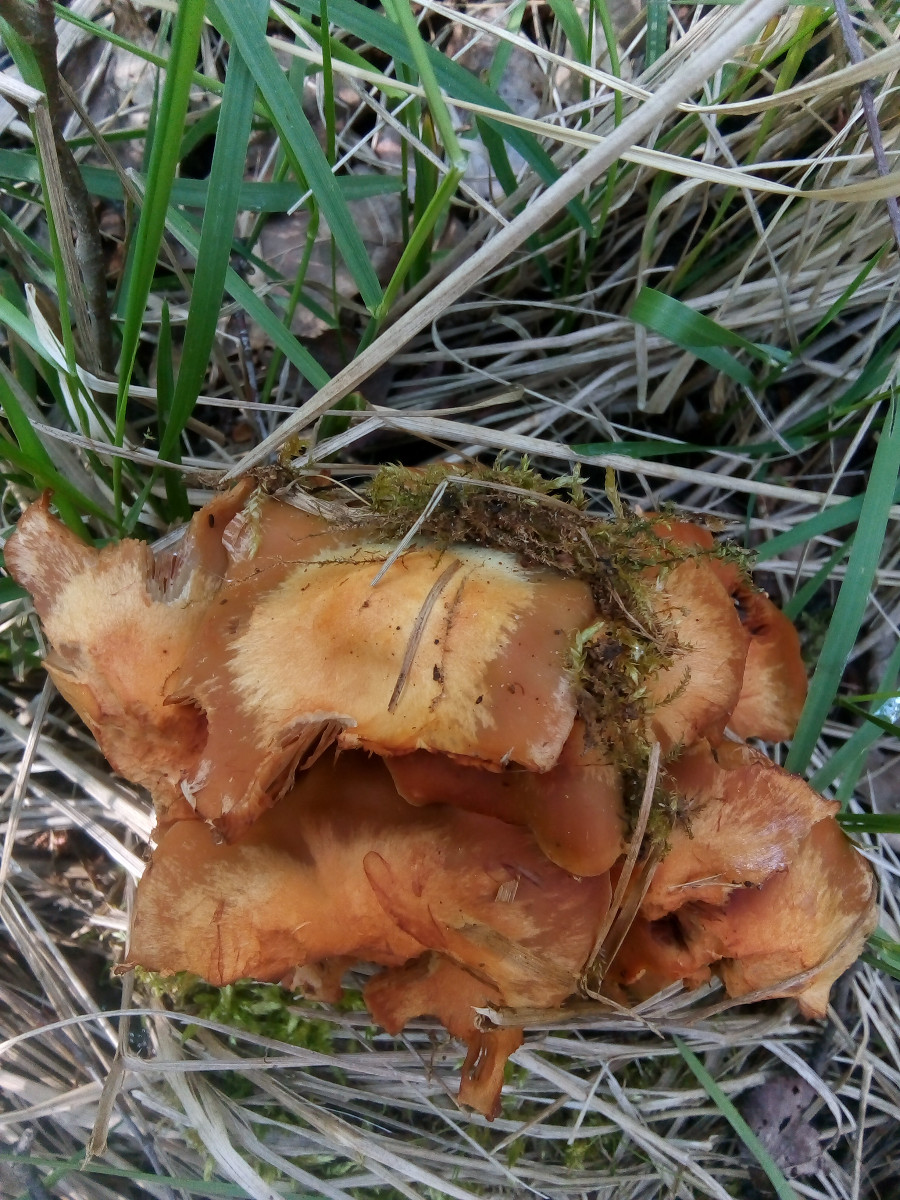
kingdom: Fungi
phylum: Basidiomycota
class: Agaricomycetes
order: Agaricales
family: Strophariaceae
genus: Kuehneromyces
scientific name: Kuehneromyces mutabilis
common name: foranderlig skælhat
